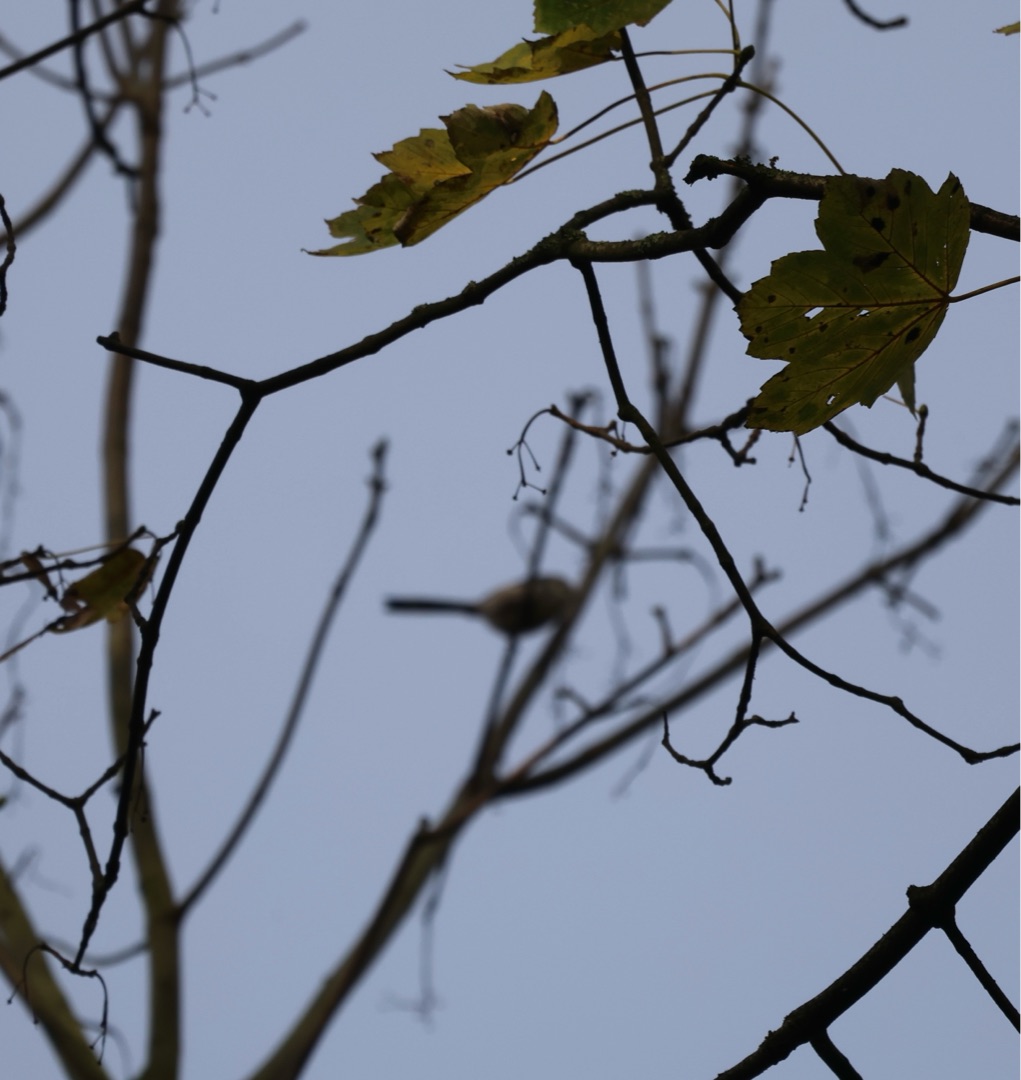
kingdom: Animalia
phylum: Chordata
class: Aves
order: Passeriformes
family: Aegithalidae
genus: Aegithalos
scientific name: Aegithalos caudatus
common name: Halemejse
